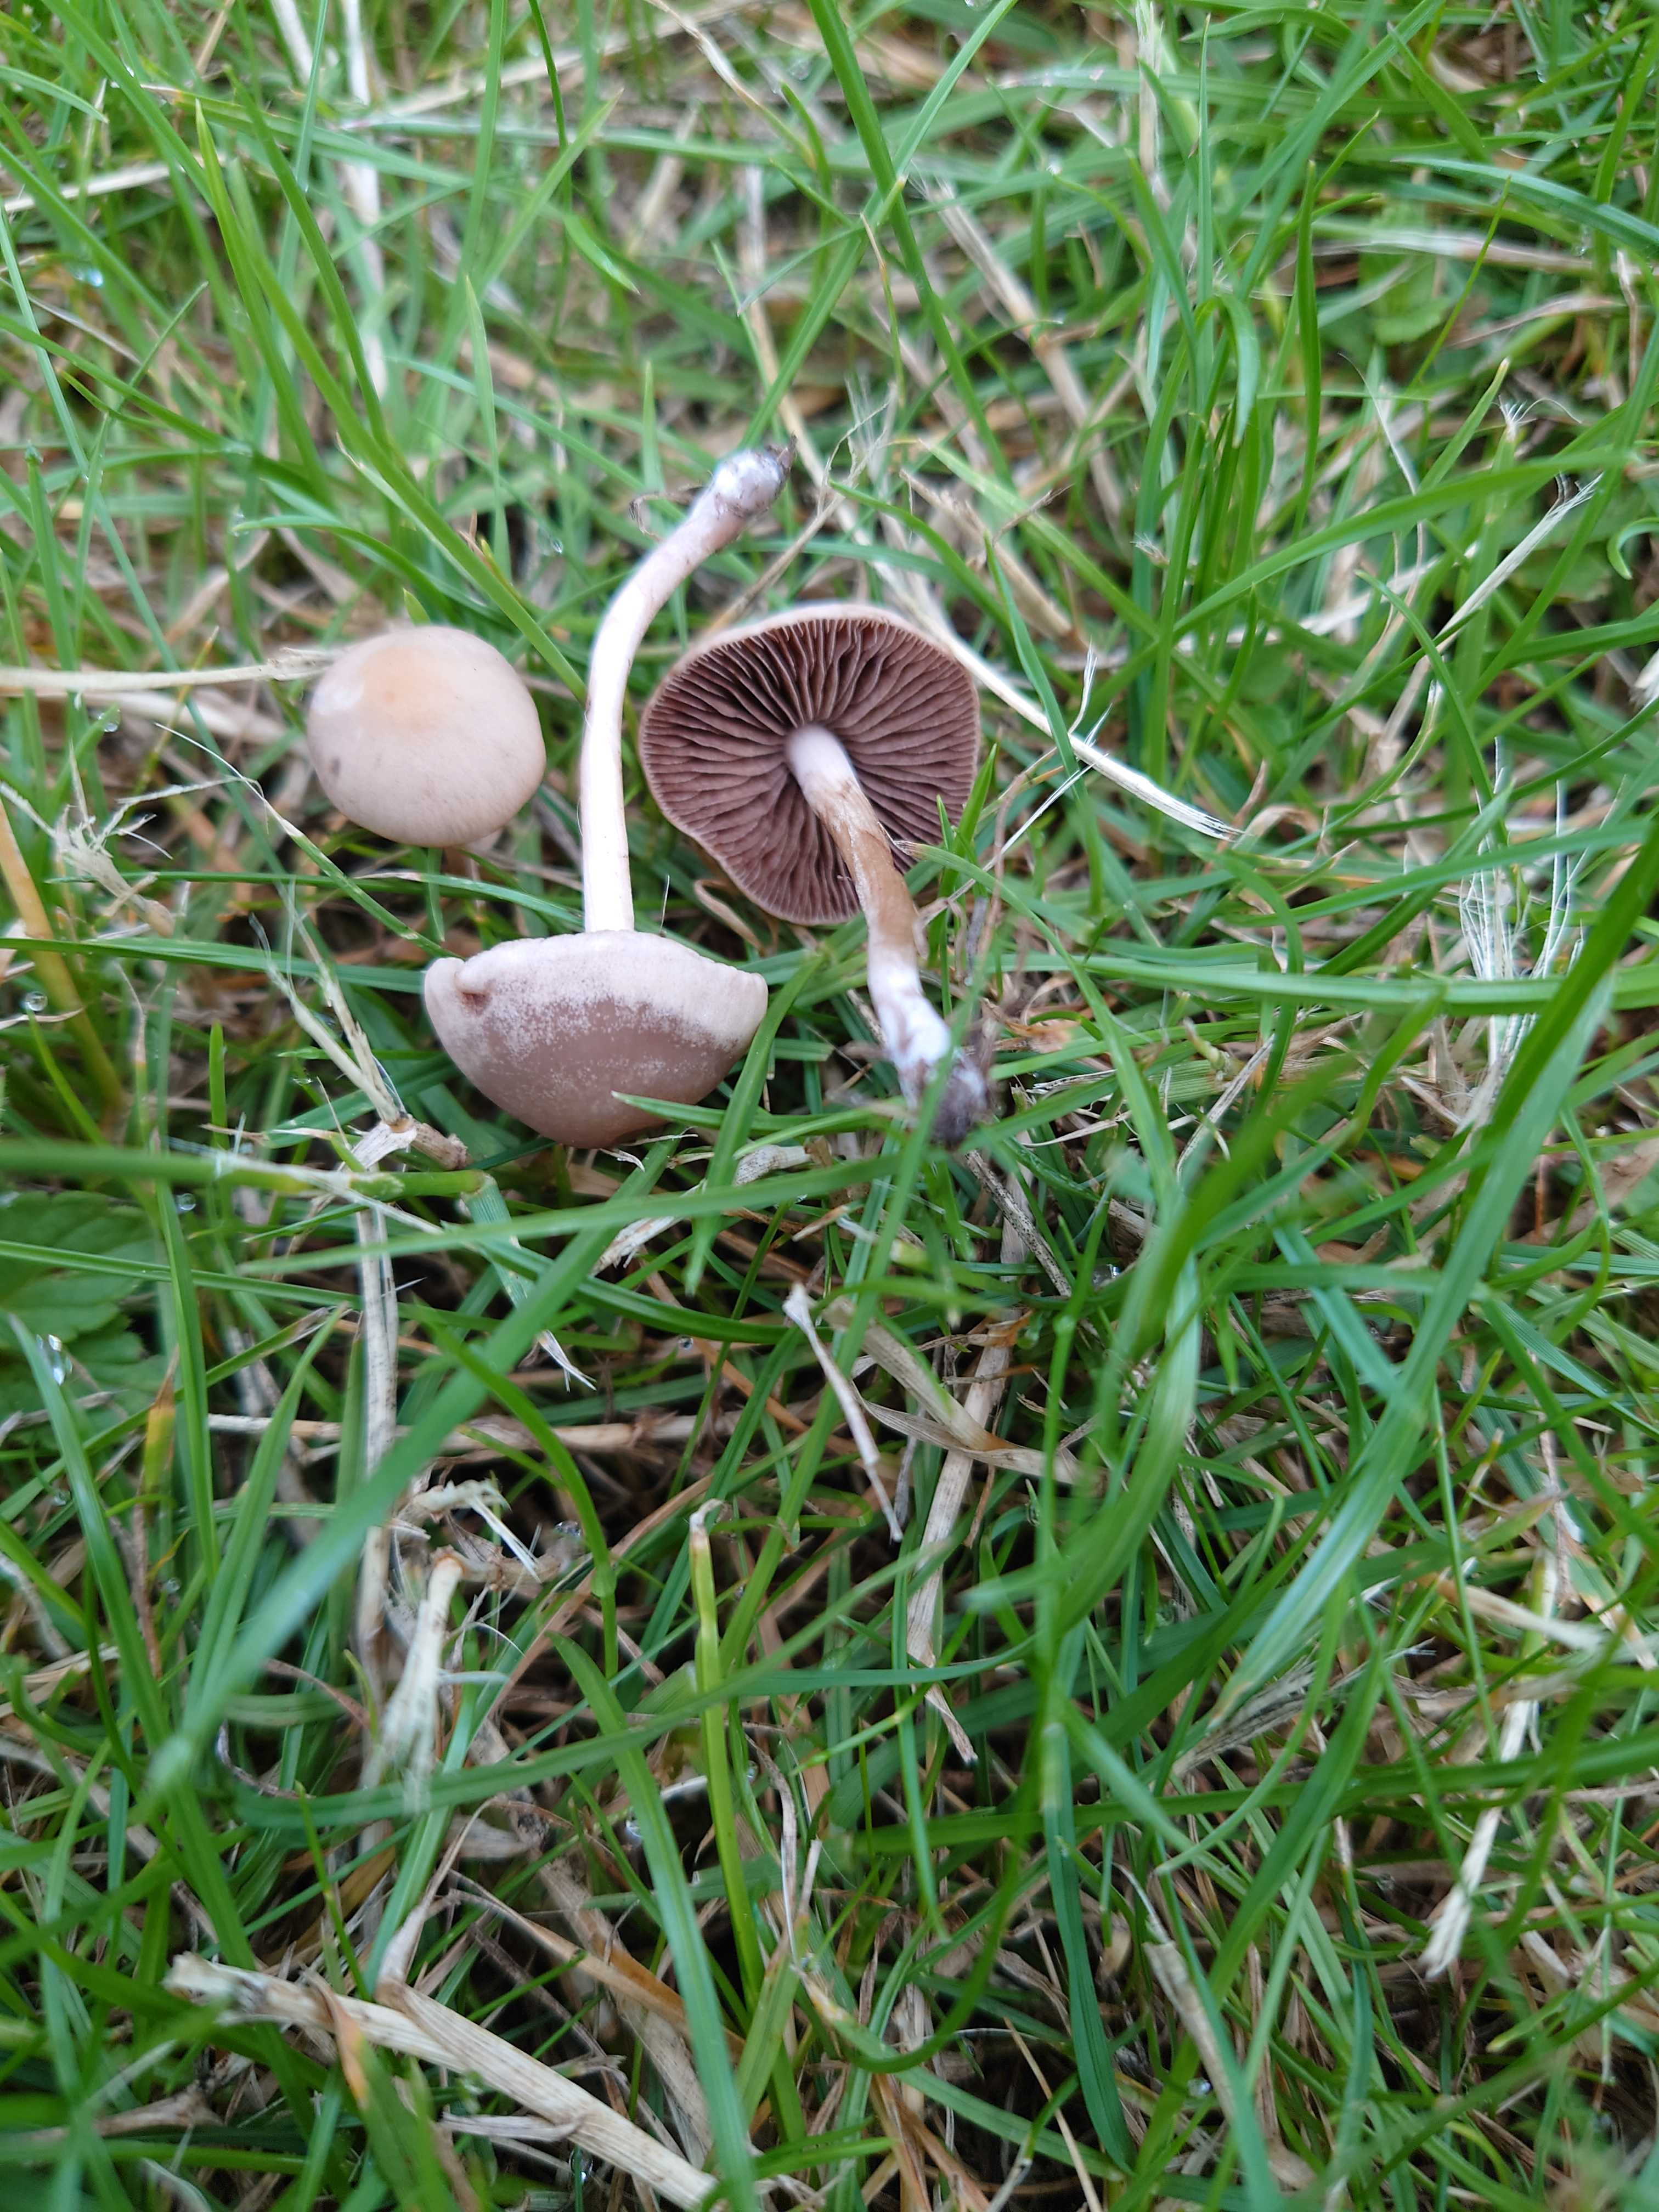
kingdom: Fungi
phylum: Basidiomycota
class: Agaricomycetes
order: Agaricales
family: Bolbitiaceae
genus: Panaeolina
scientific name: Panaeolina foenisecii
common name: høslætsvamp
